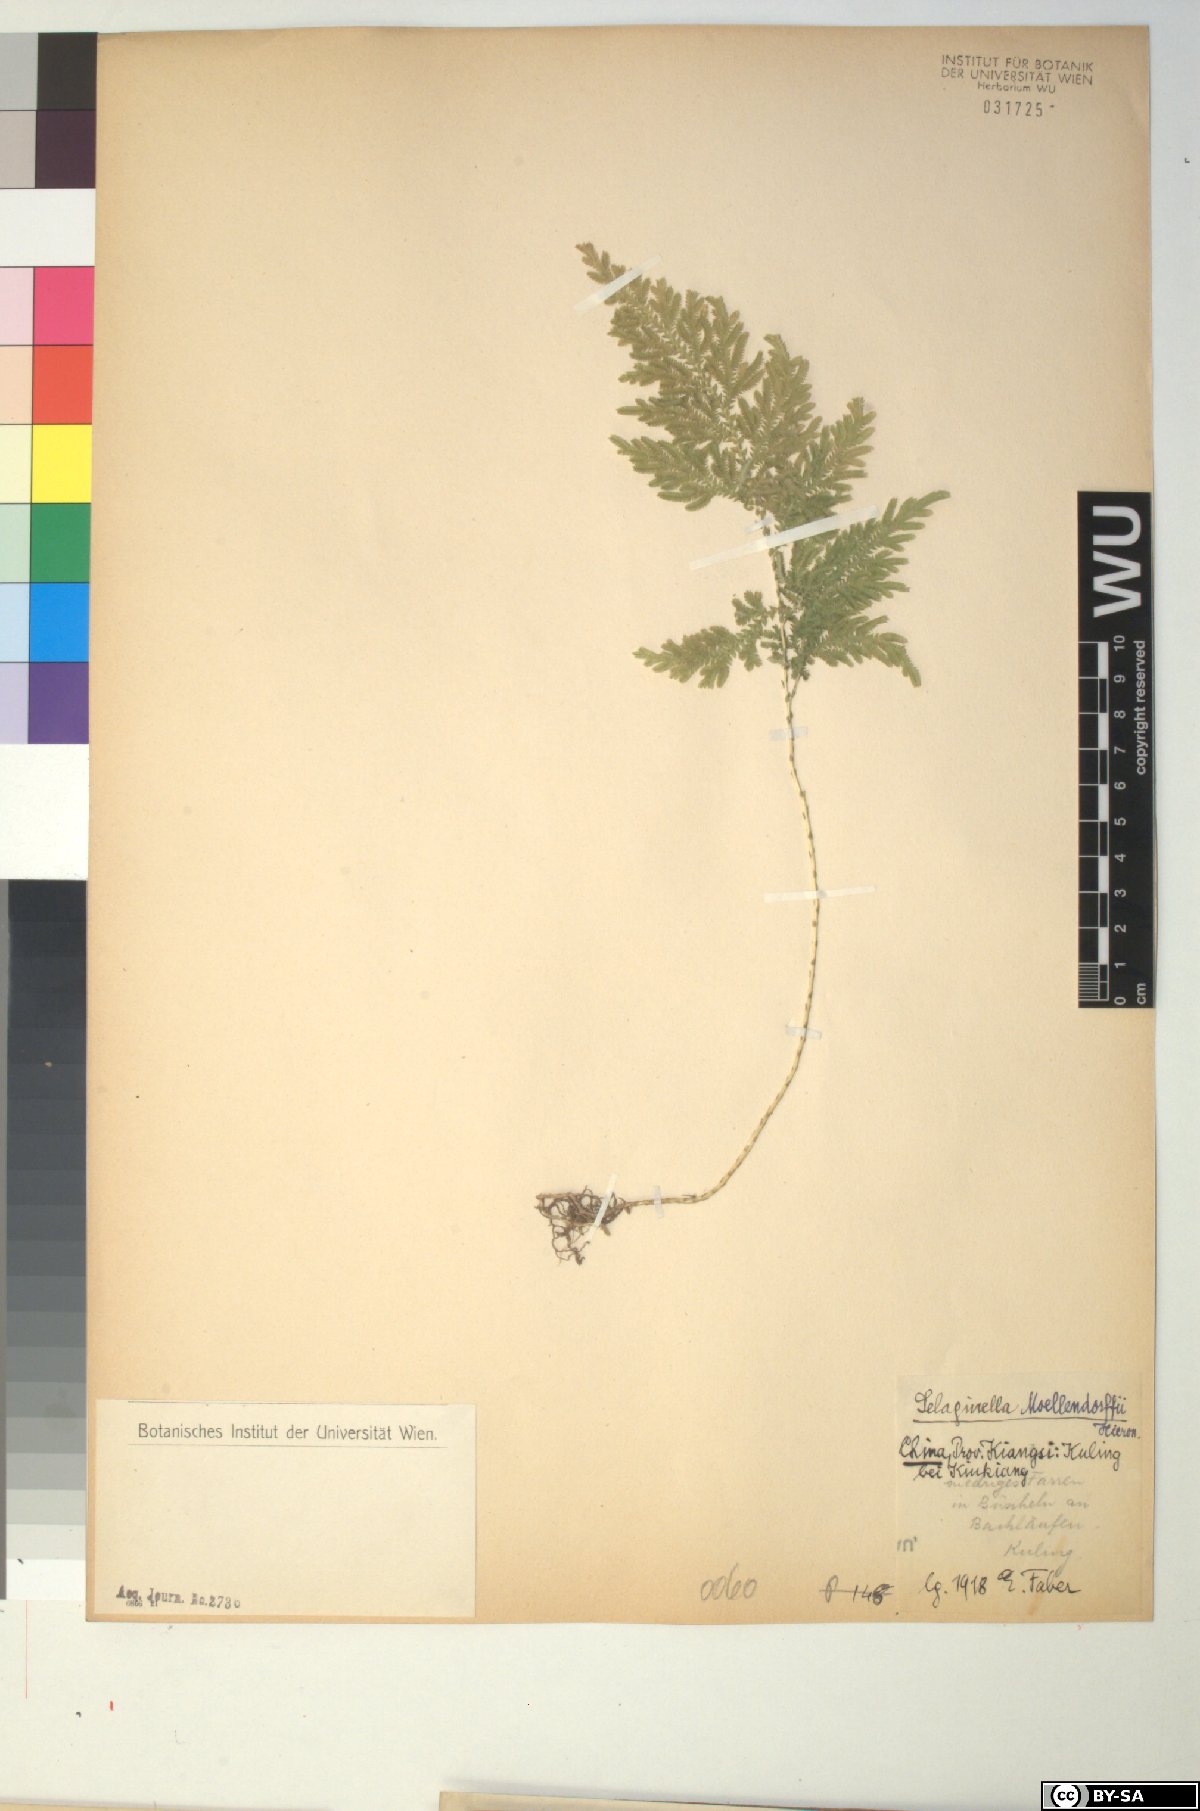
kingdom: Plantae
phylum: Tracheophyta
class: Lycopodiopsida
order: Selaginellales
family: Selaginellaceae
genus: Selaginella
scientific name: Selaginella moellendorffii
